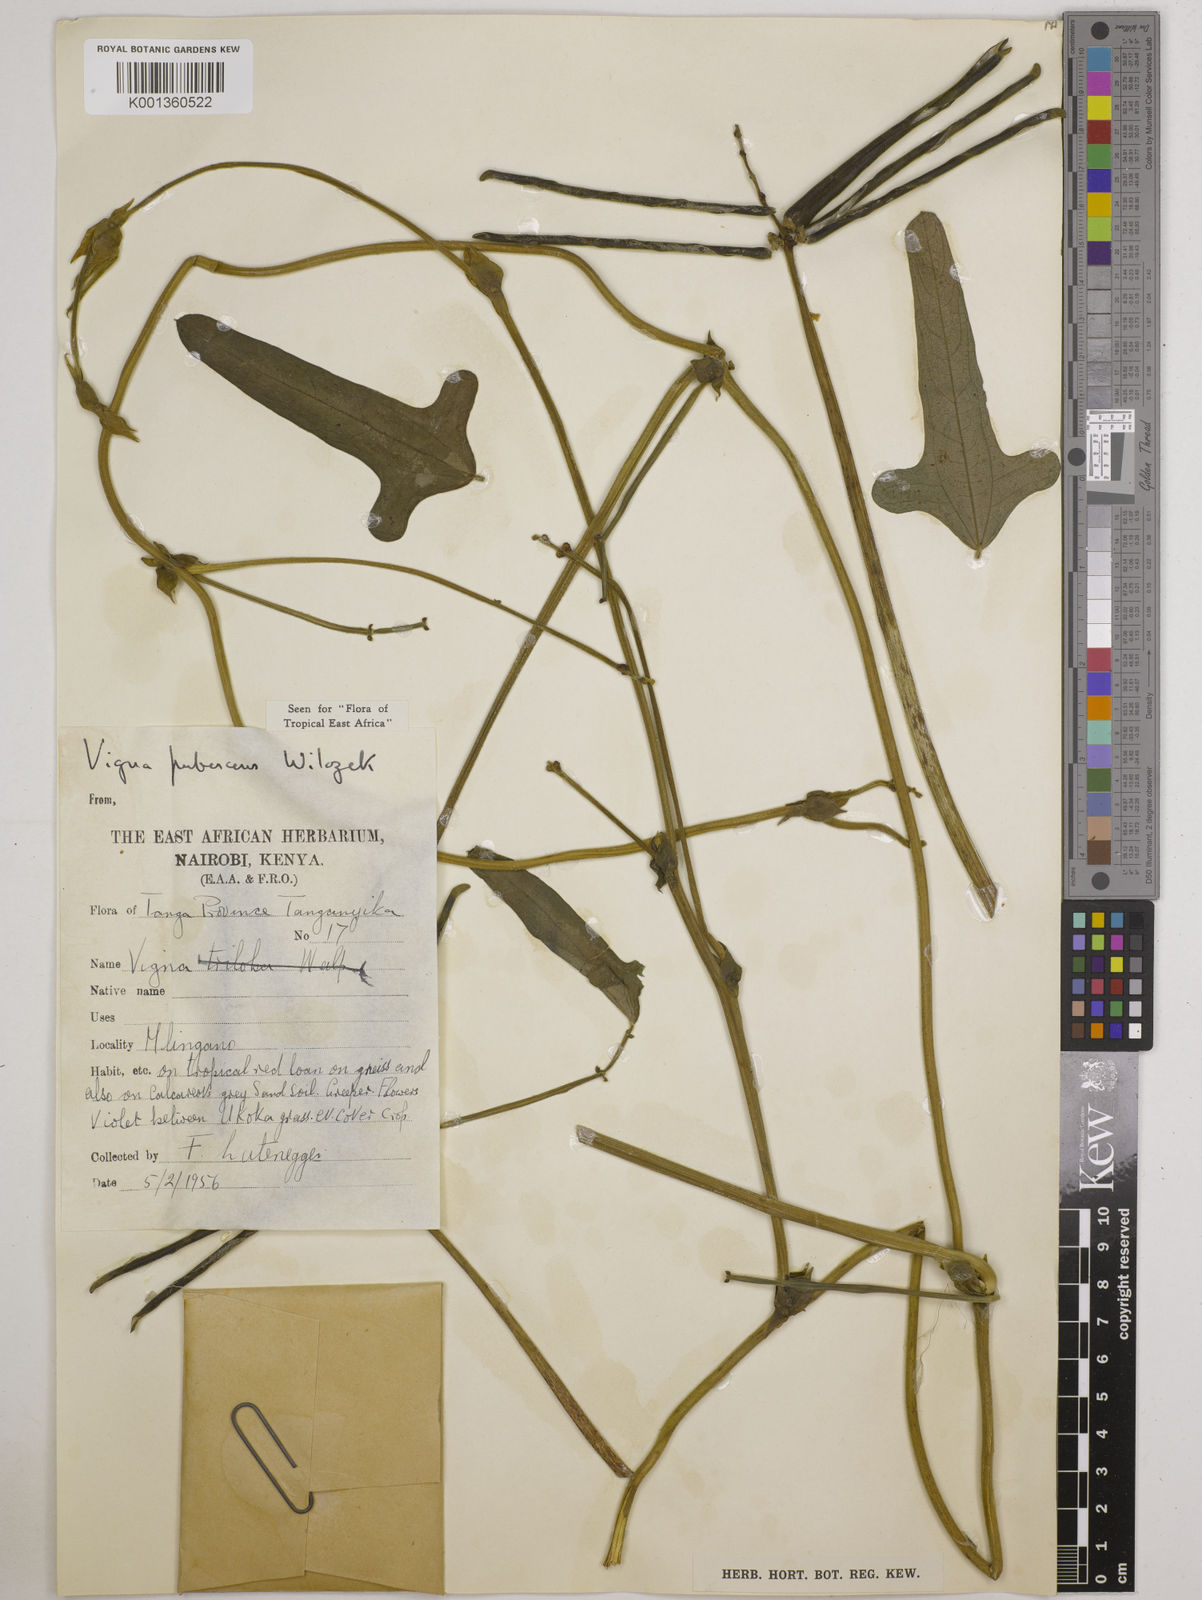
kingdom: Plantae
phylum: Tracheophyta
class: Magnoliopsida
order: Fabales
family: Fabaceae
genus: Vigna
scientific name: Vigna unguiculata
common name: Cowpea
